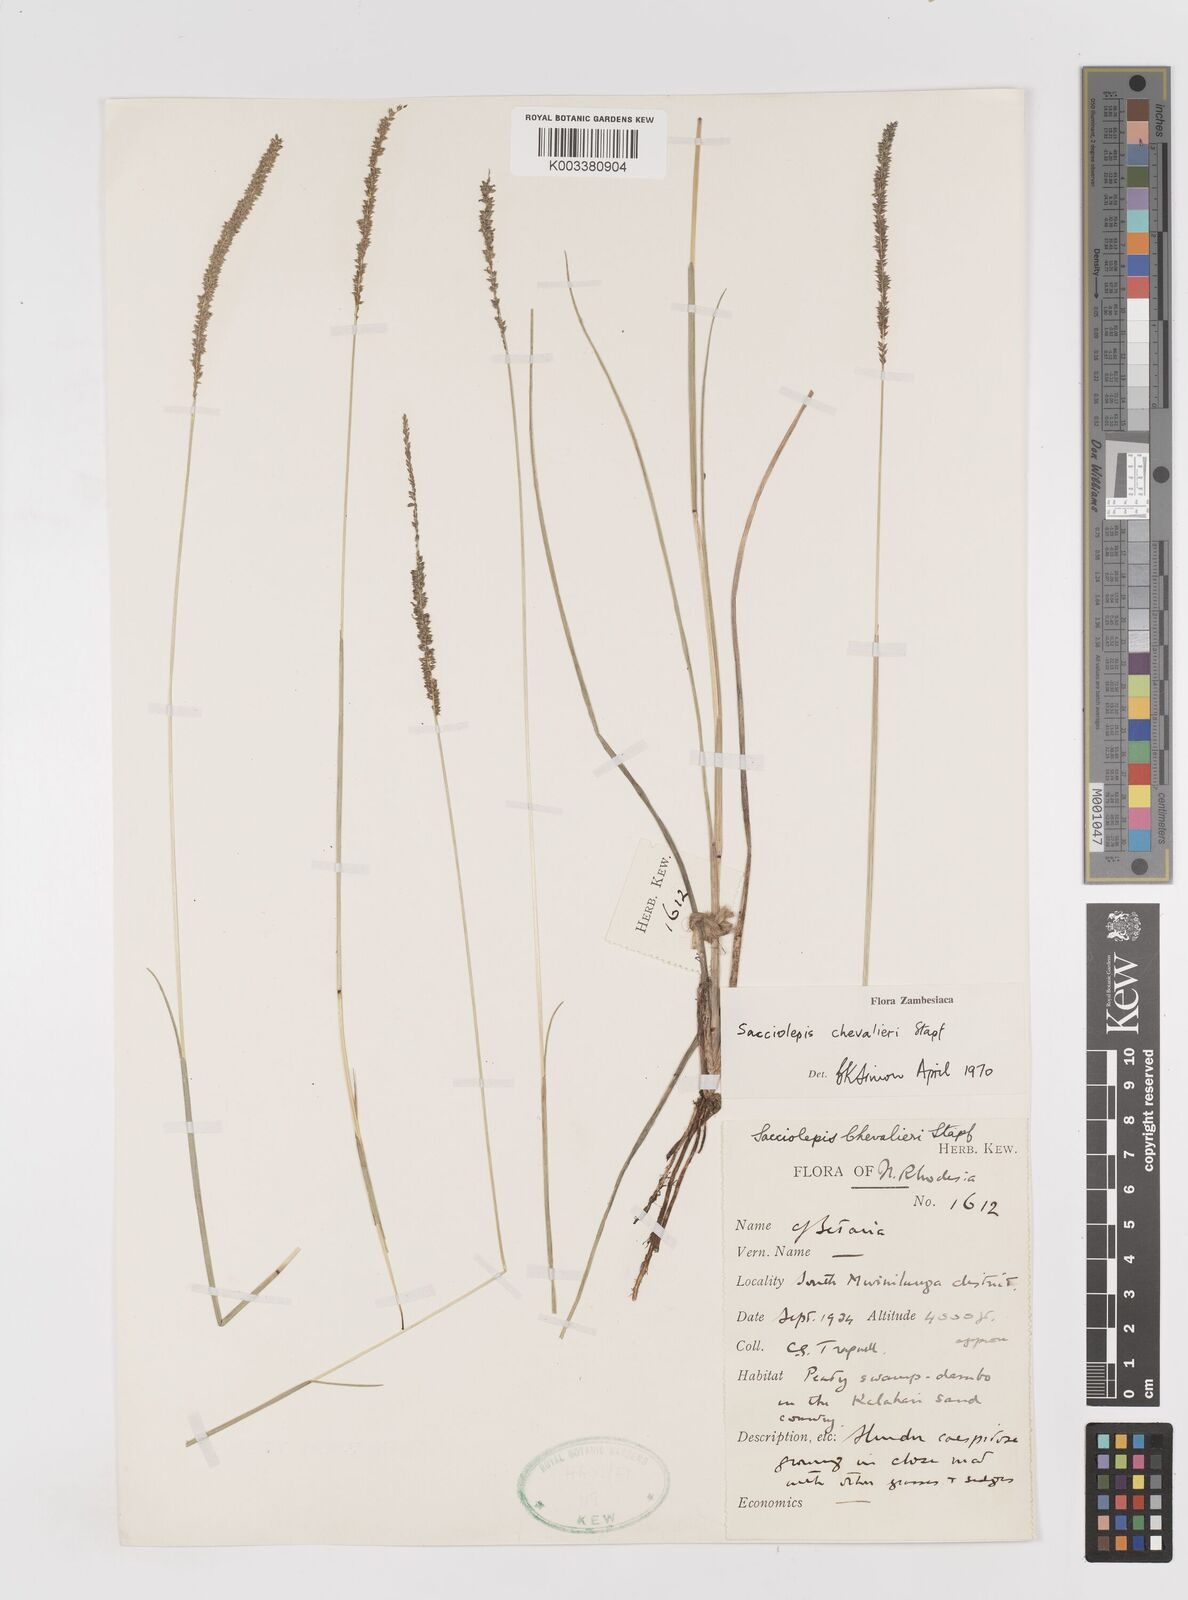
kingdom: Plantae
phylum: Tracheophyta
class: Liliopsida
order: Poales
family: Poaceae
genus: Sacciolepis
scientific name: Sacciolepis chevalieri
